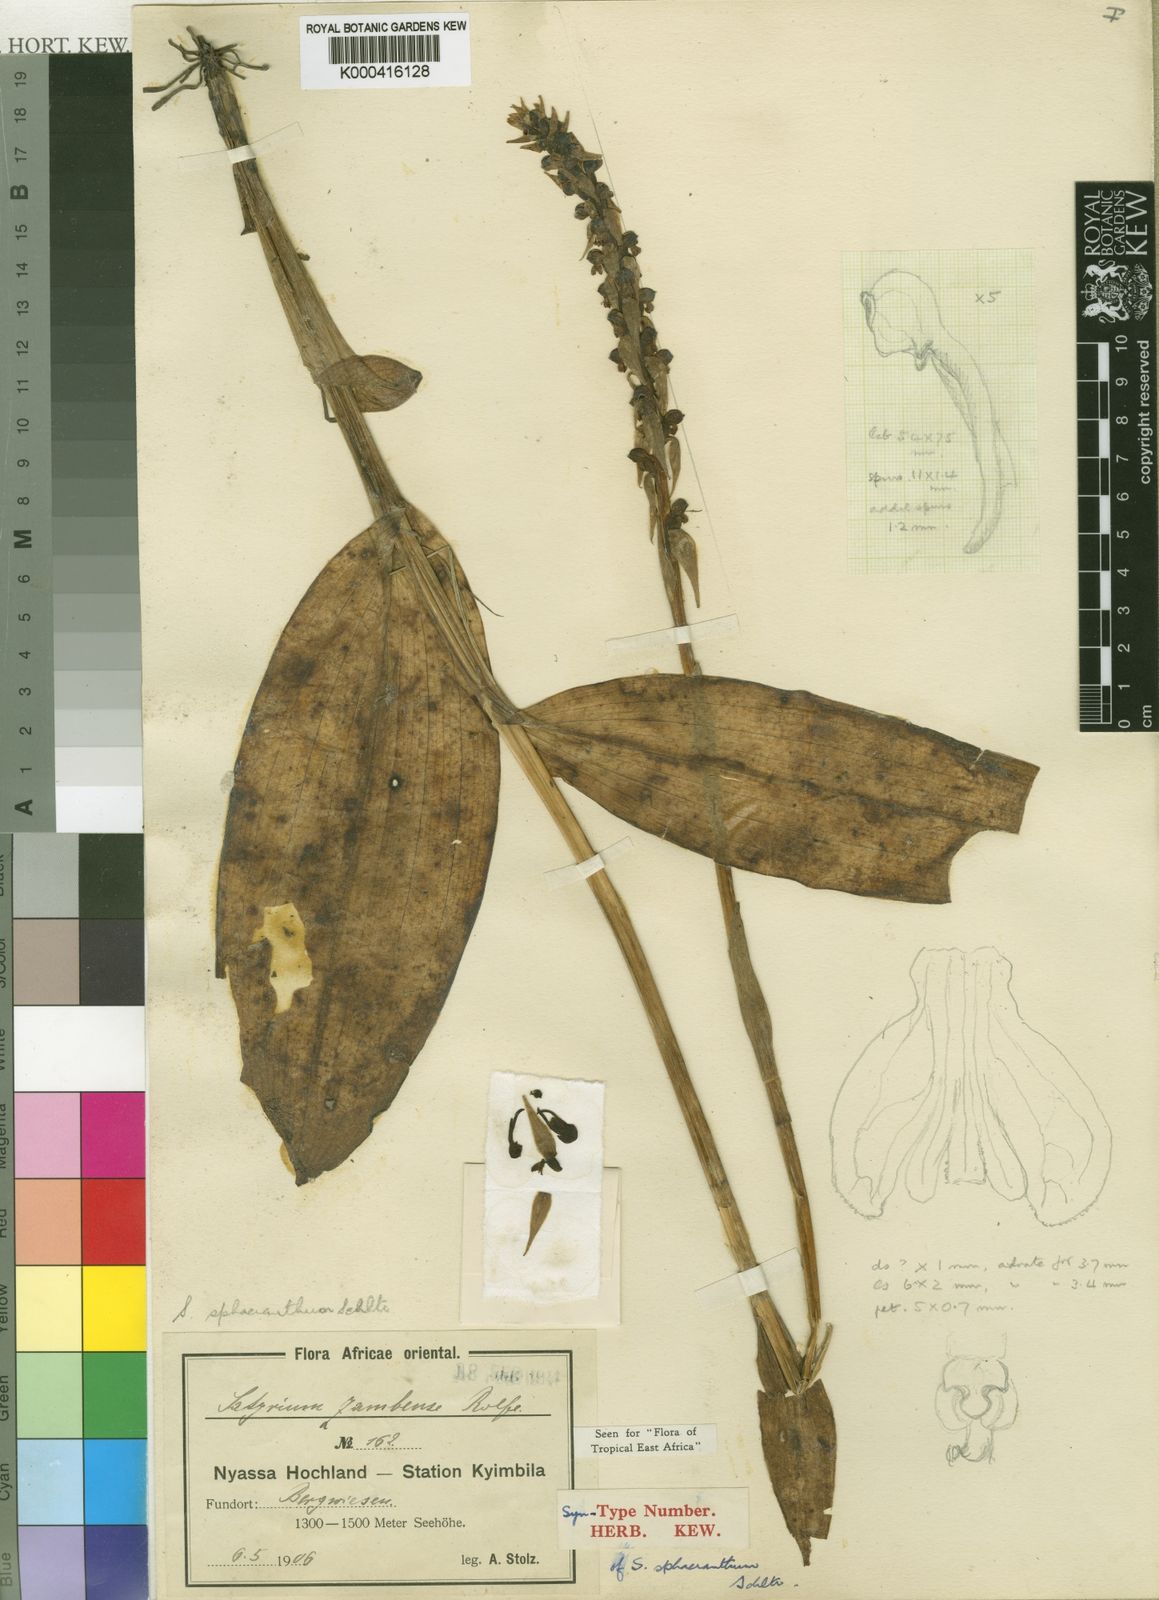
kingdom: Plantae
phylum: Tracheophyta
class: Liliopsida
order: Asparagales
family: Orchidaceae
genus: Satyrium
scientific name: Satyrium sphaeranthum
